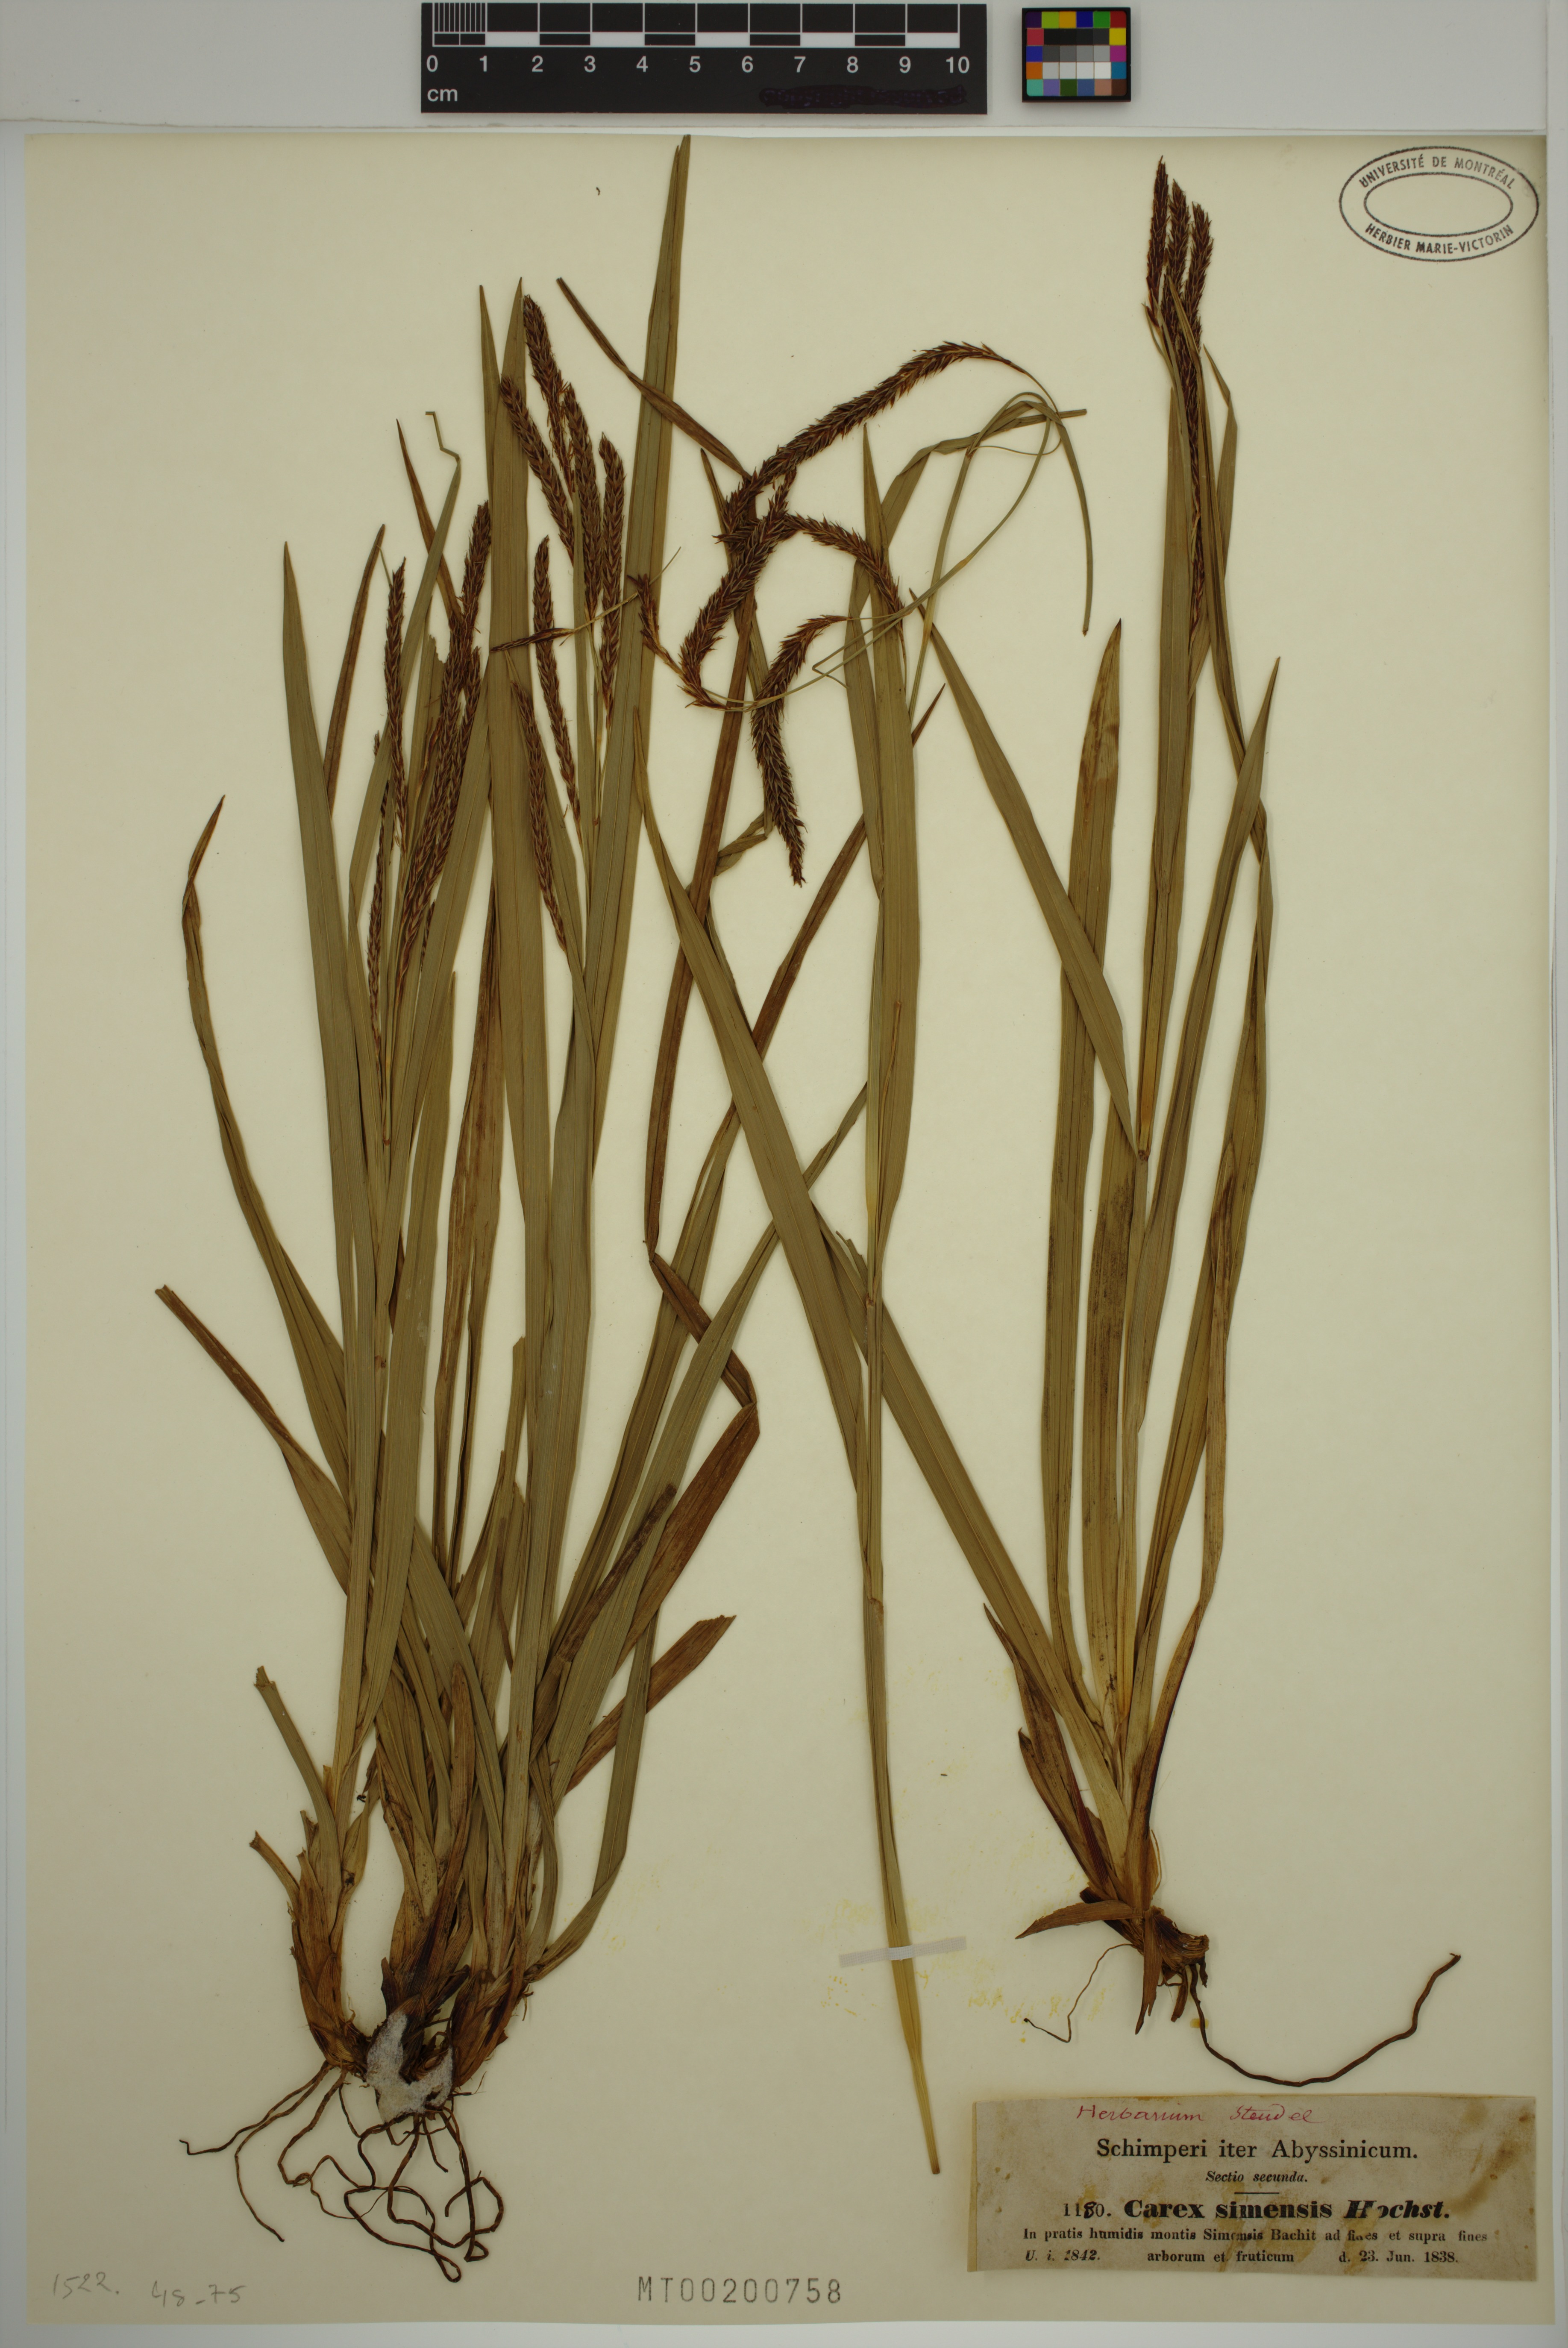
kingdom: Plantae
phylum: Tracheophyta
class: Liliopsida
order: Poales
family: Cyperaceae
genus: Carex
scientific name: Carex simensis
